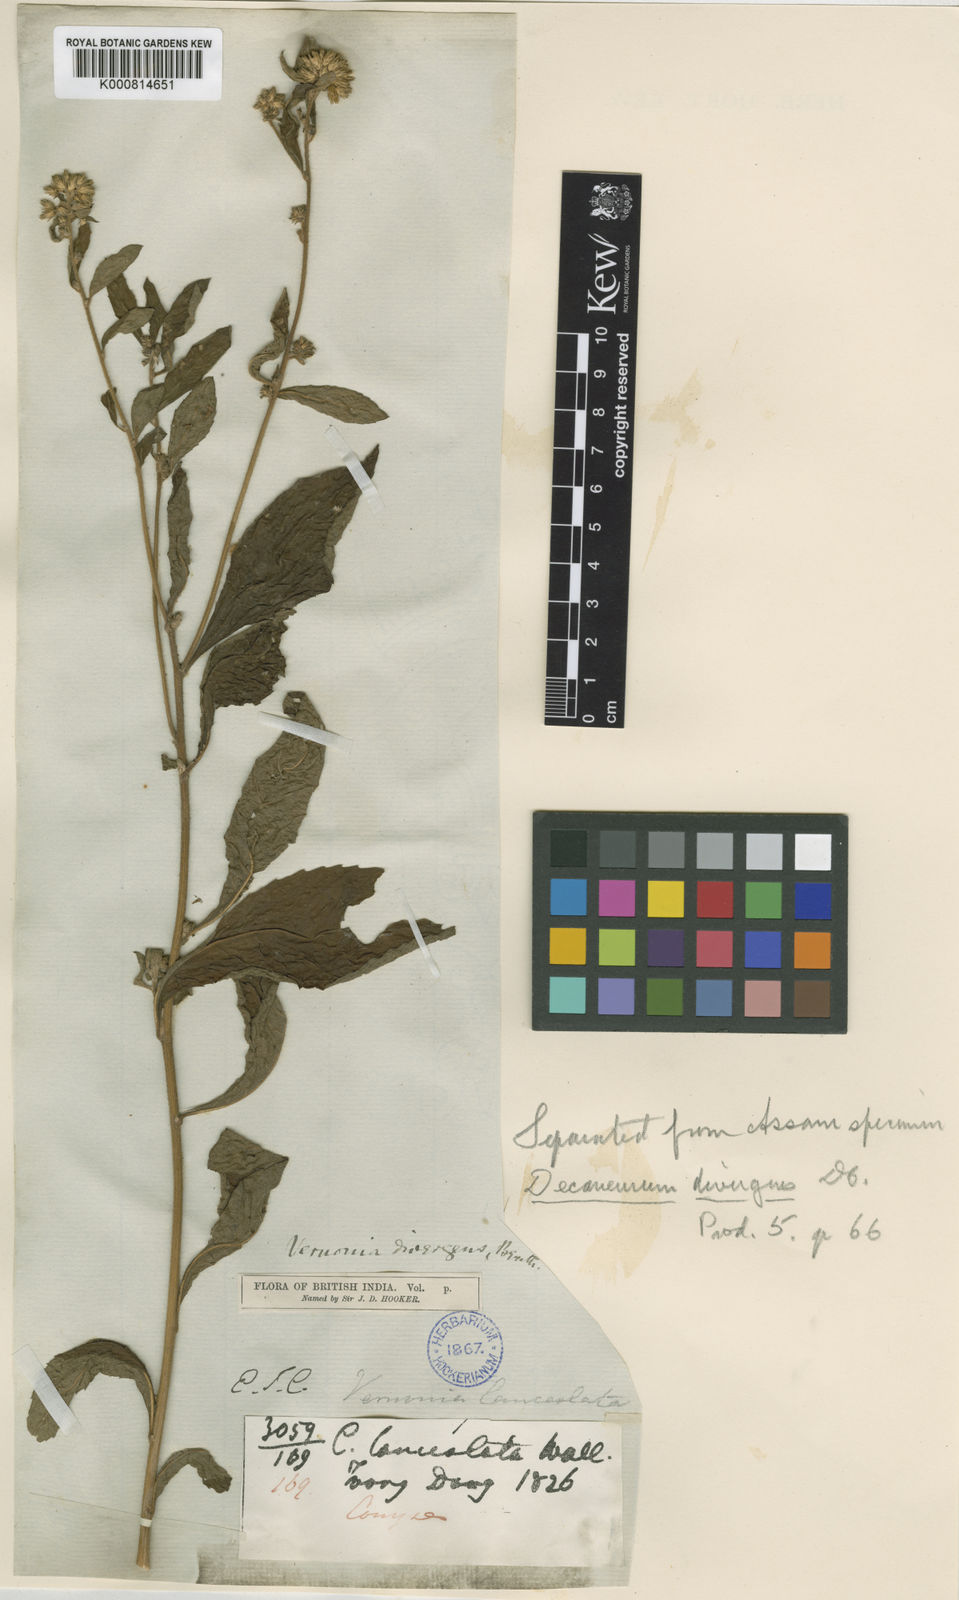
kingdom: Plantae
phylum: Tracheophyta
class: Magnoliopsida
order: Asterales
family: Asteraceae
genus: Vernonia
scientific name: Vernonia
